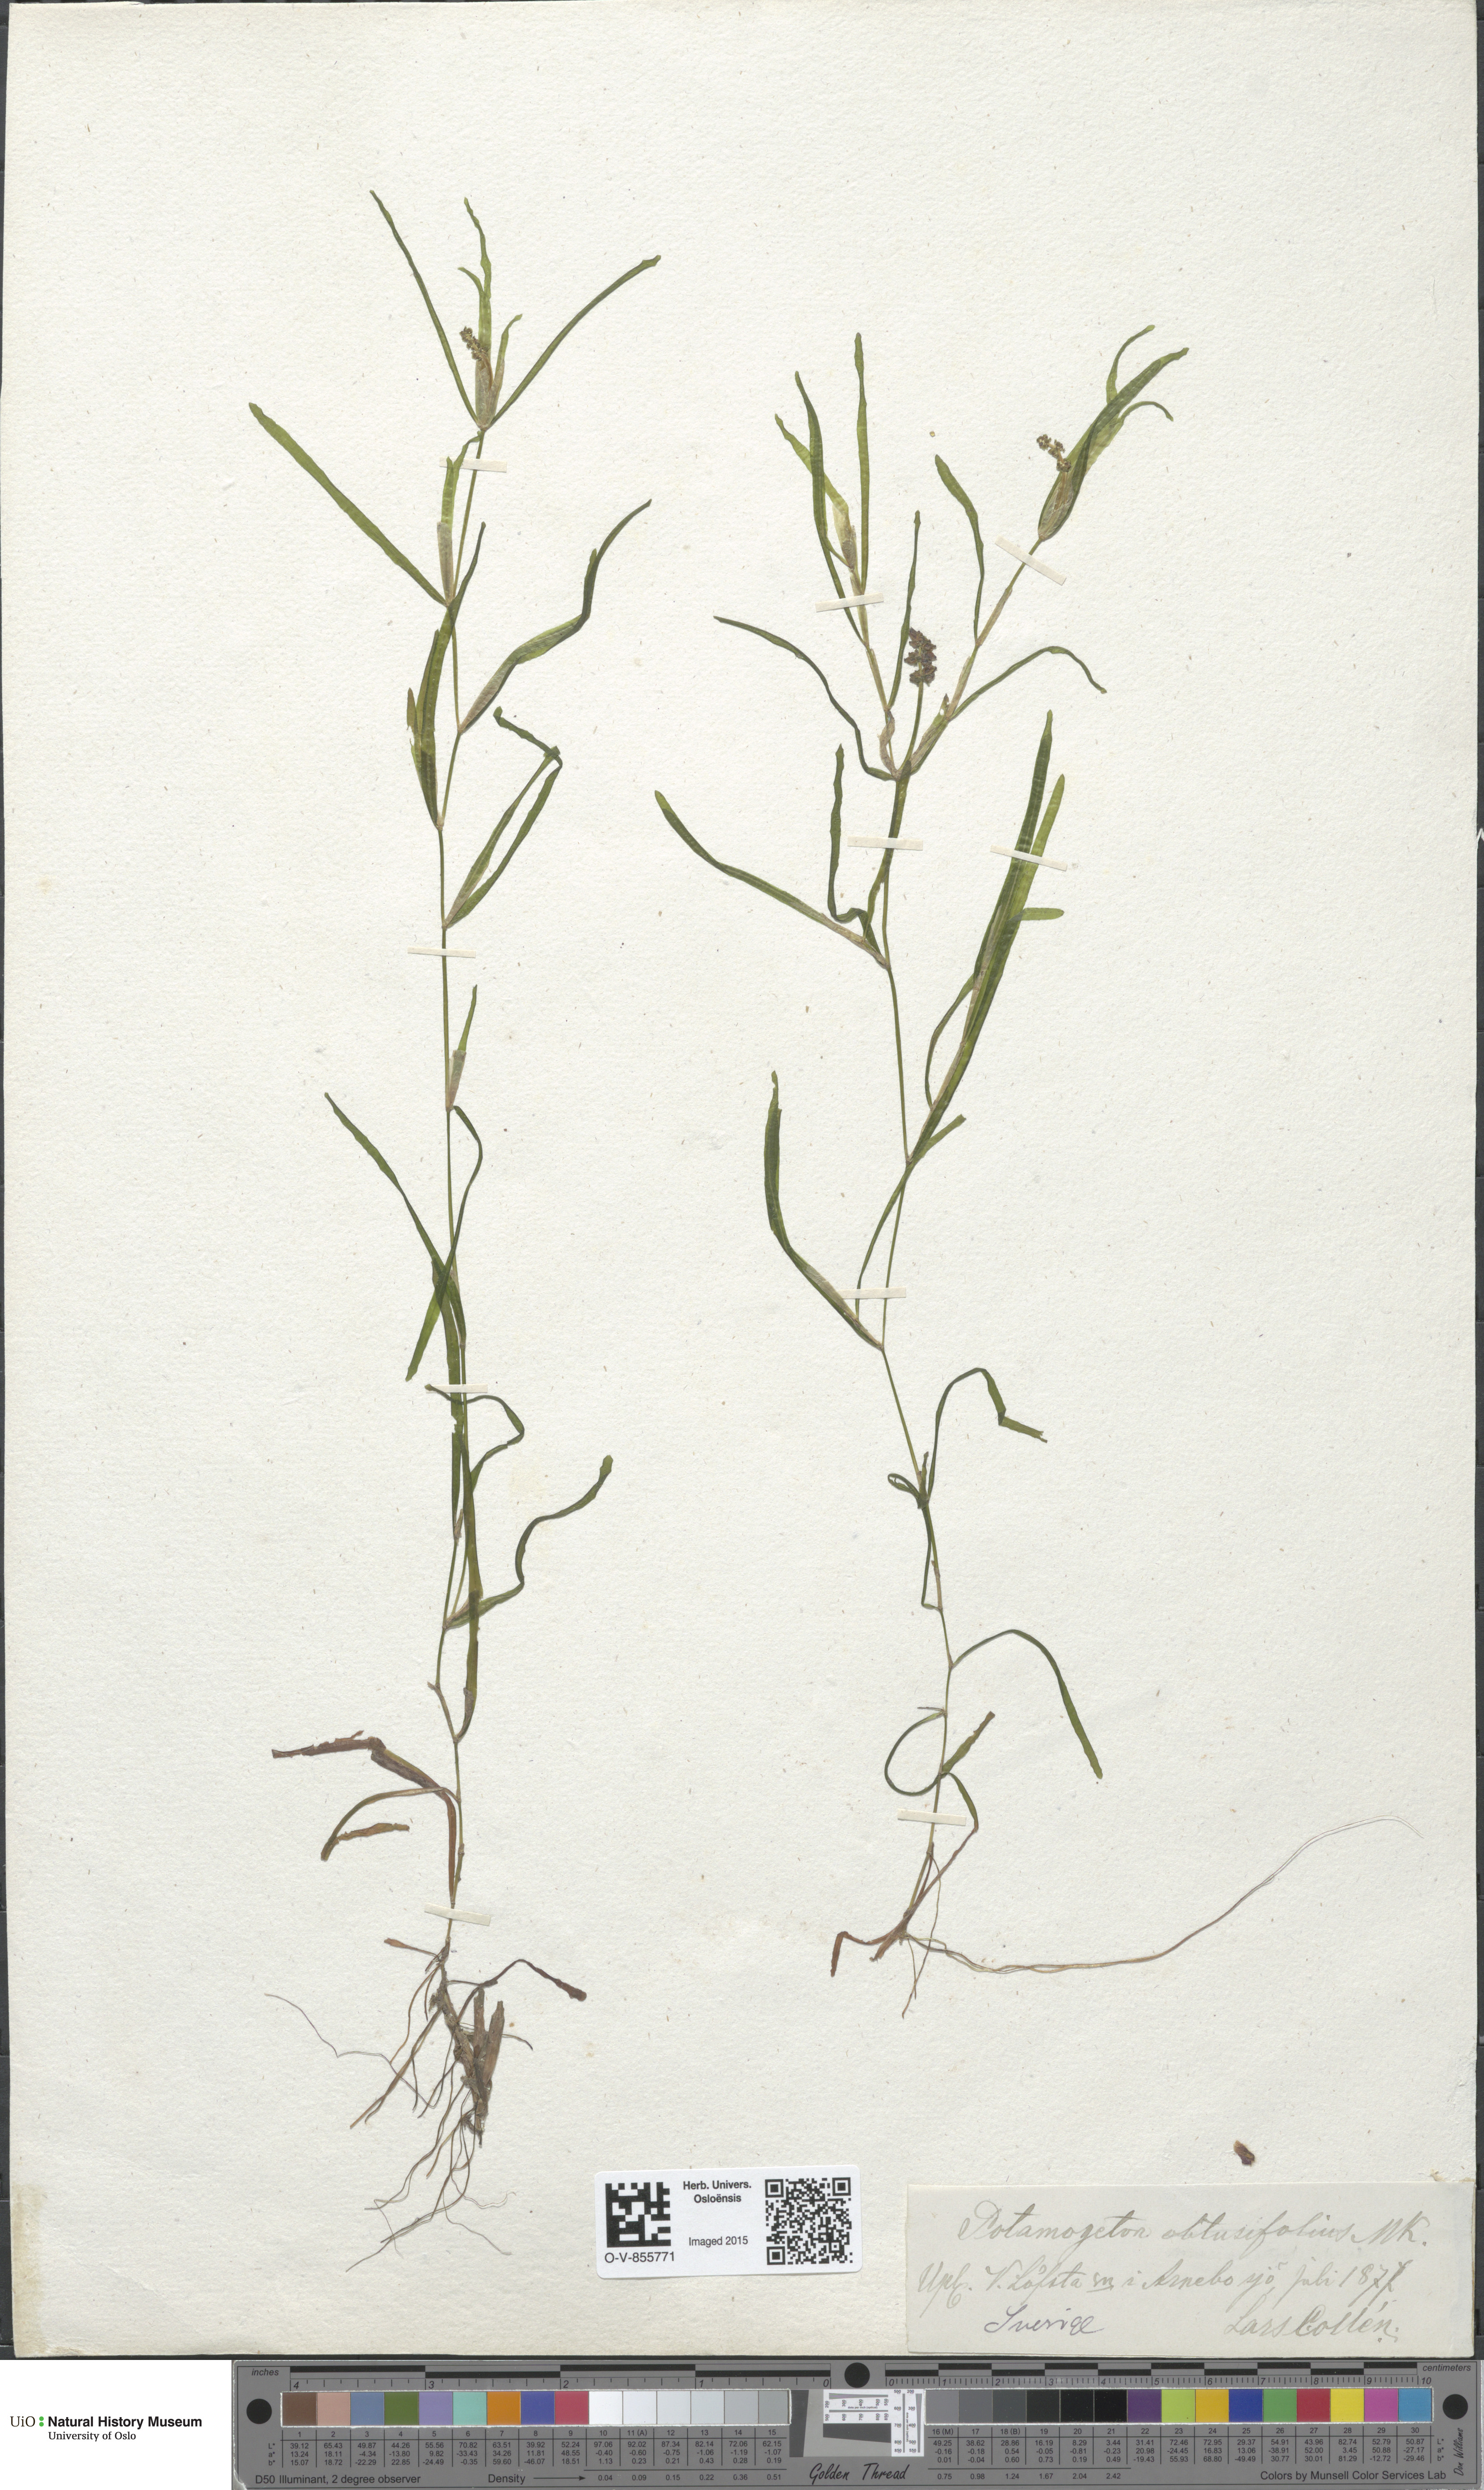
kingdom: Plantae
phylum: Tracheophyta
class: Liliopsida
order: Alismatales
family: Potamogetonaceae
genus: Potamogeton
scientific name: Potamogeton obtusifolius
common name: Blunt-leaved pondweed
